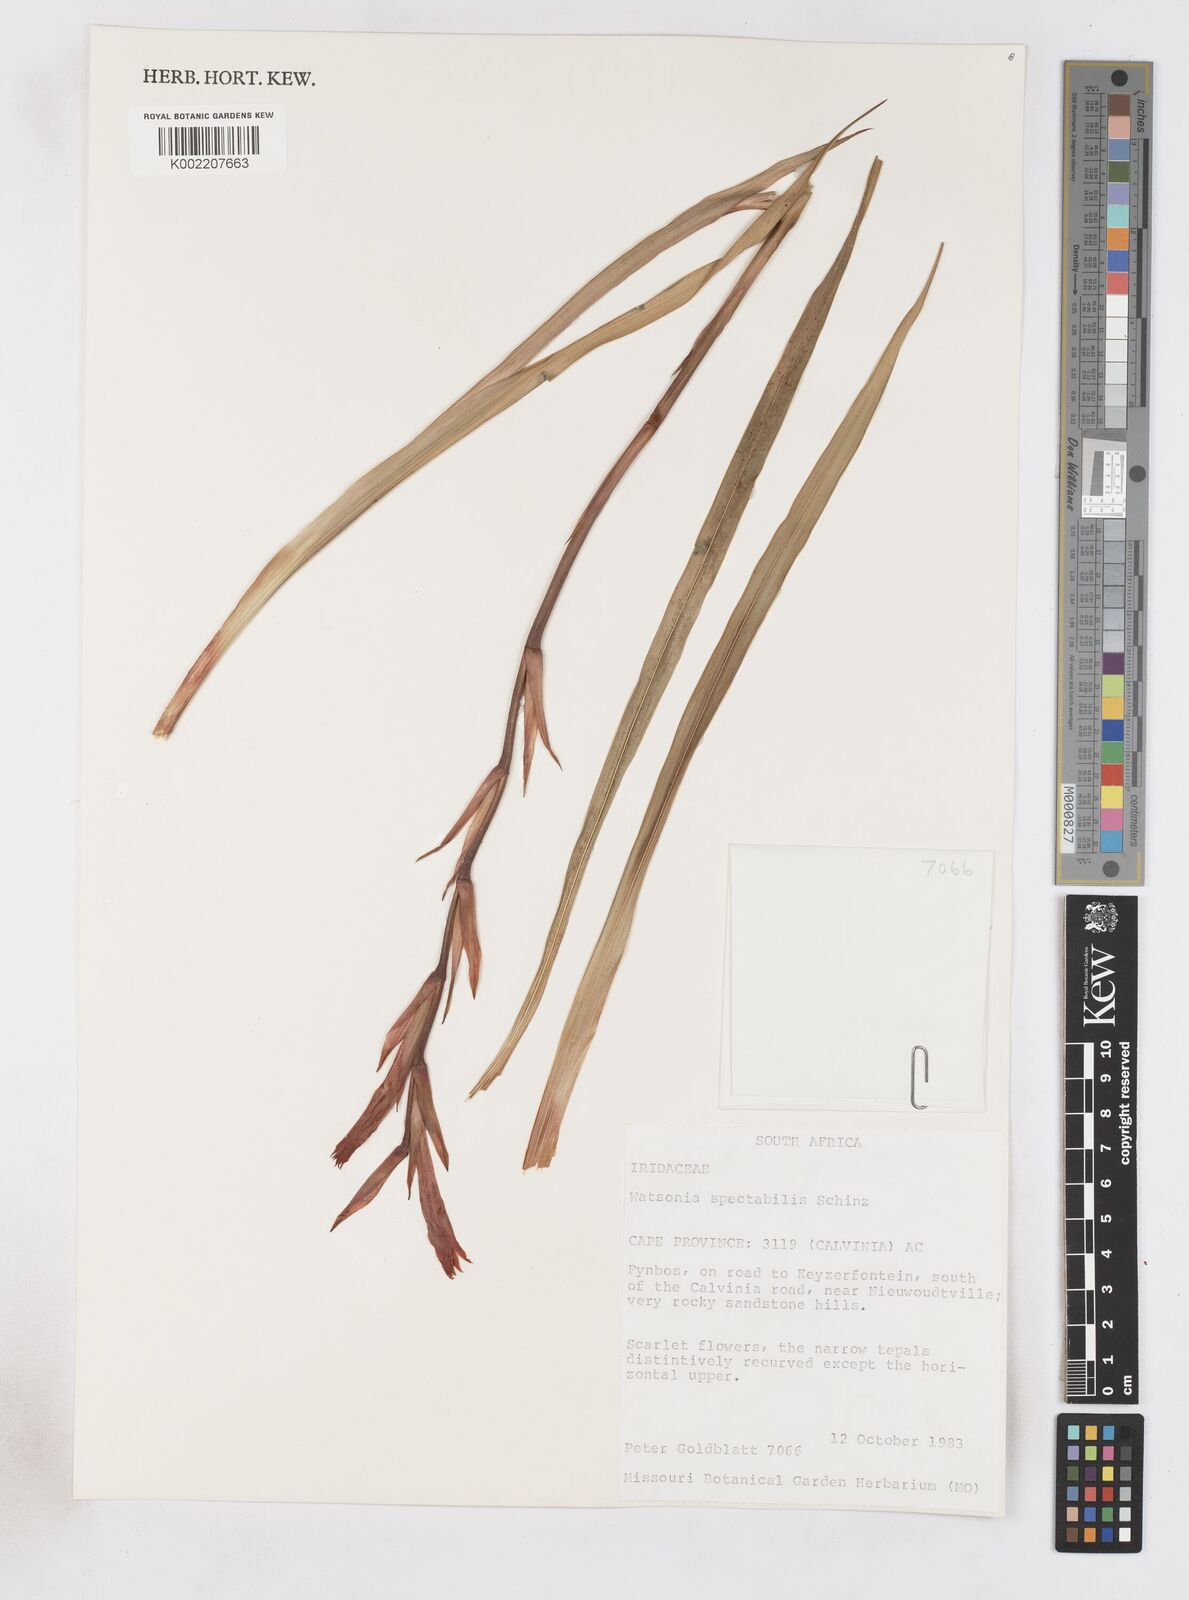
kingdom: Plantae
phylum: Tracheophyta
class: Liliopsida
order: Asparagales
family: Iridaceae
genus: Watsonia
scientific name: Watsonia spectabilis
